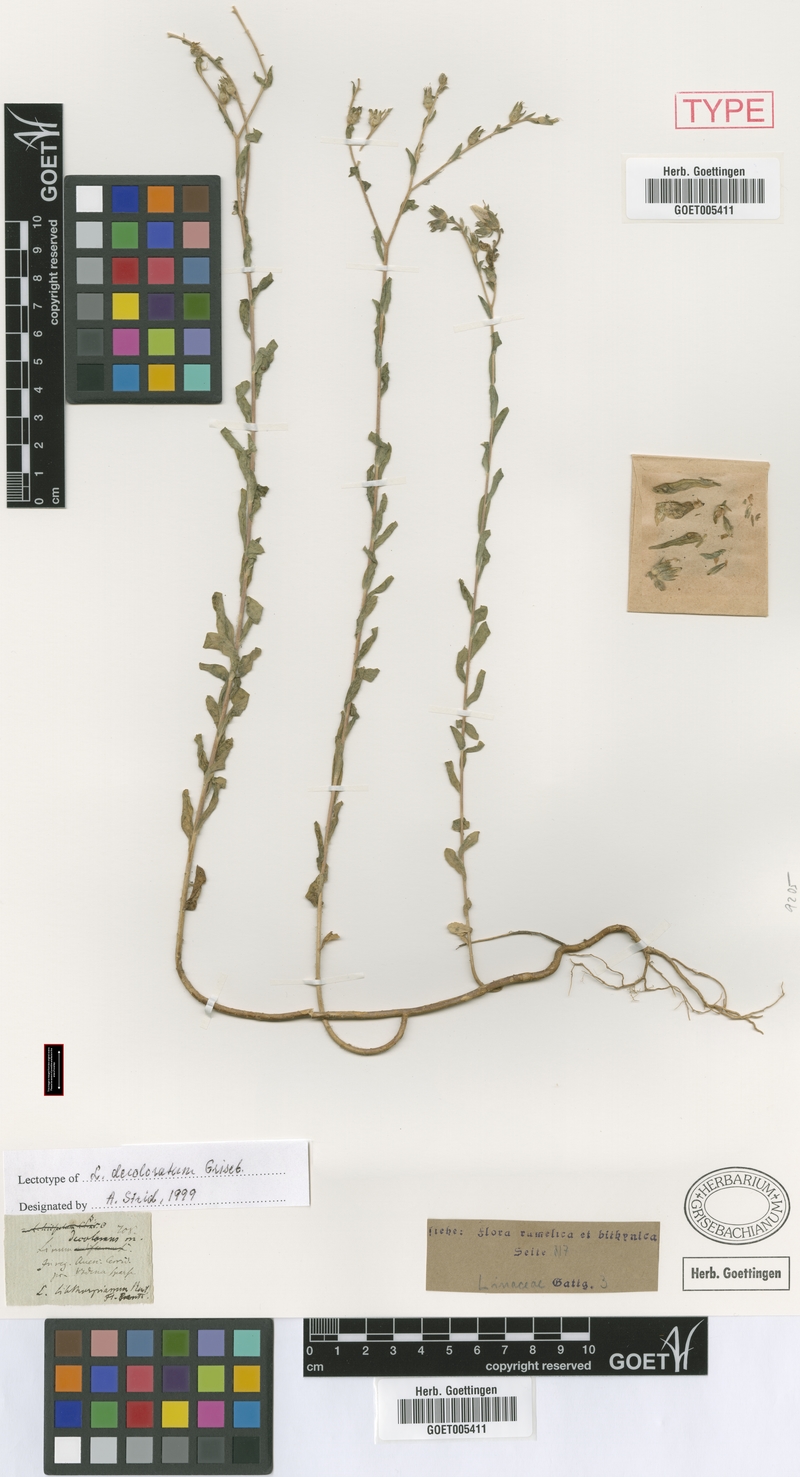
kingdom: Plantae
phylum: Tracheophyta
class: Magnoliopsida
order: Malpighiales
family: Linaceae
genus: Linum
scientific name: Linum hirsutum
